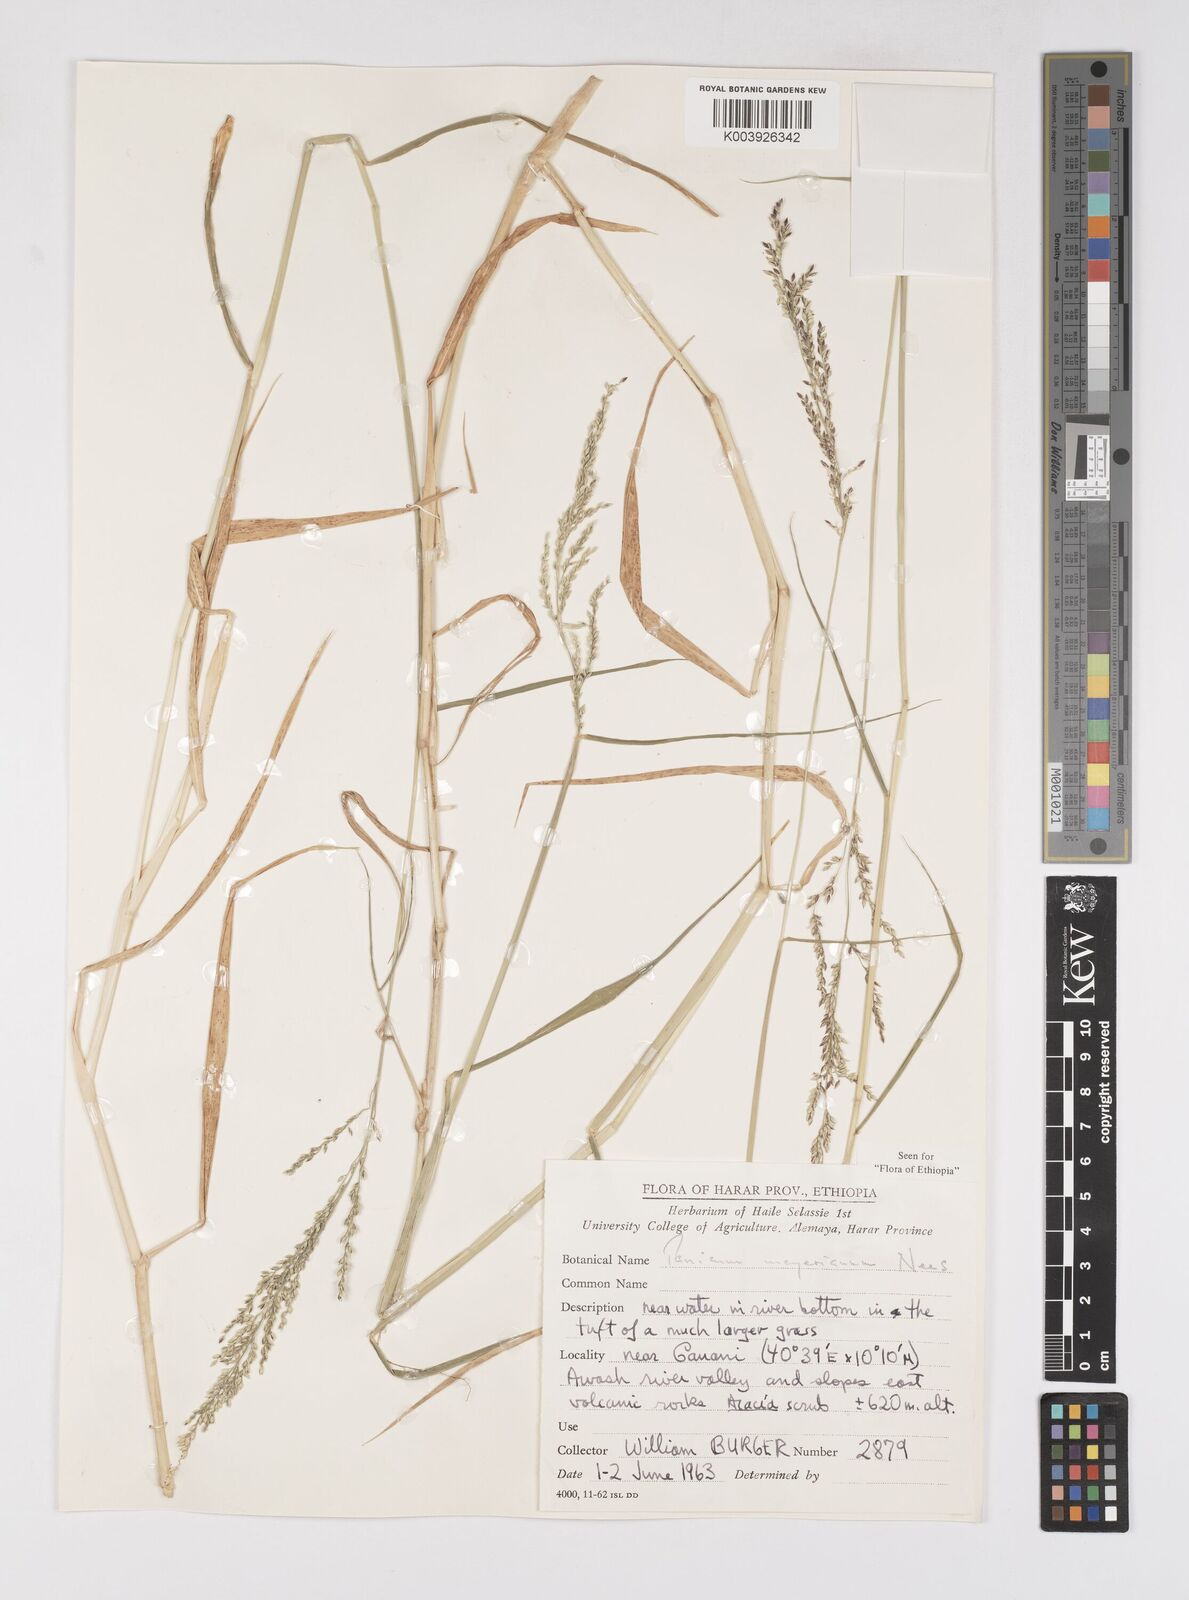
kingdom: Plantae
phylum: Tracheophyta
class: Liliopsida
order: Poales
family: Poaceae
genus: Eriochloa
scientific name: Eriochloa meyeriana
